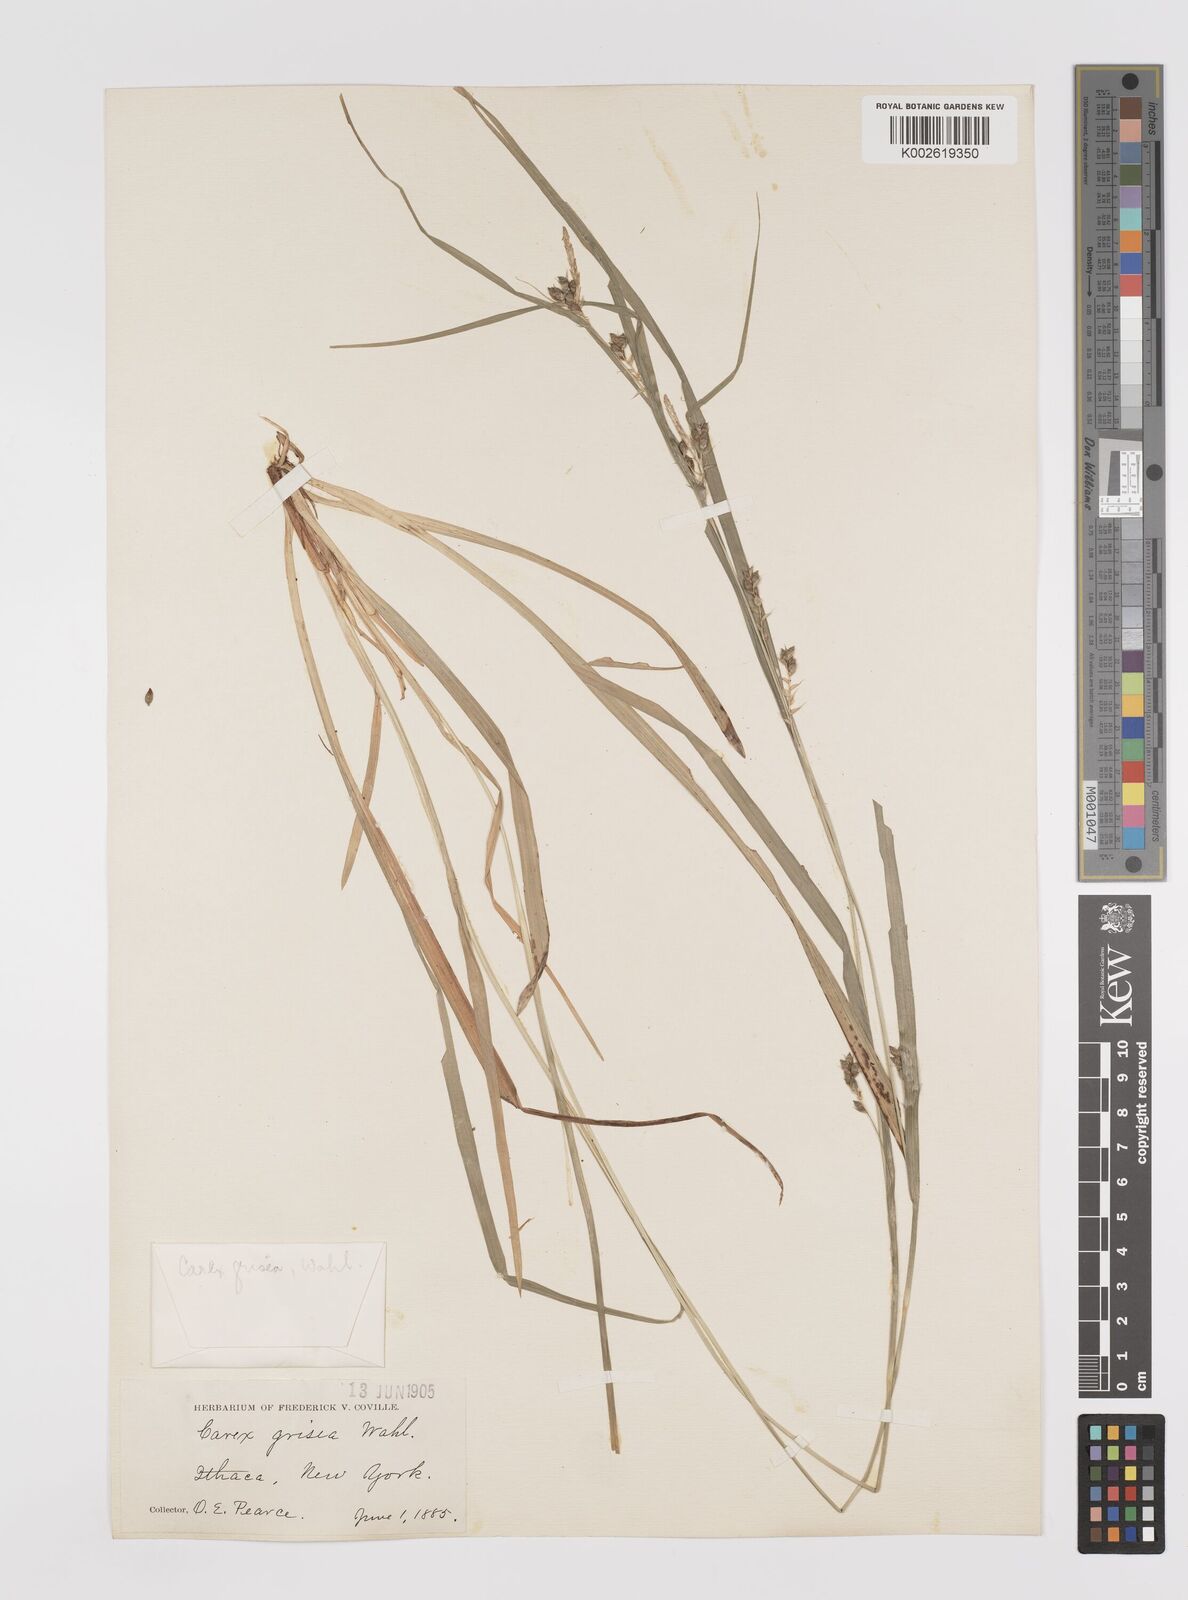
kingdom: Plantae
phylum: Tracheophyta
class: Liliopsida
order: Poales
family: Cyperaceae
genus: Carex
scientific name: Carex grisea
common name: Eastern narrow-leaved sedge
